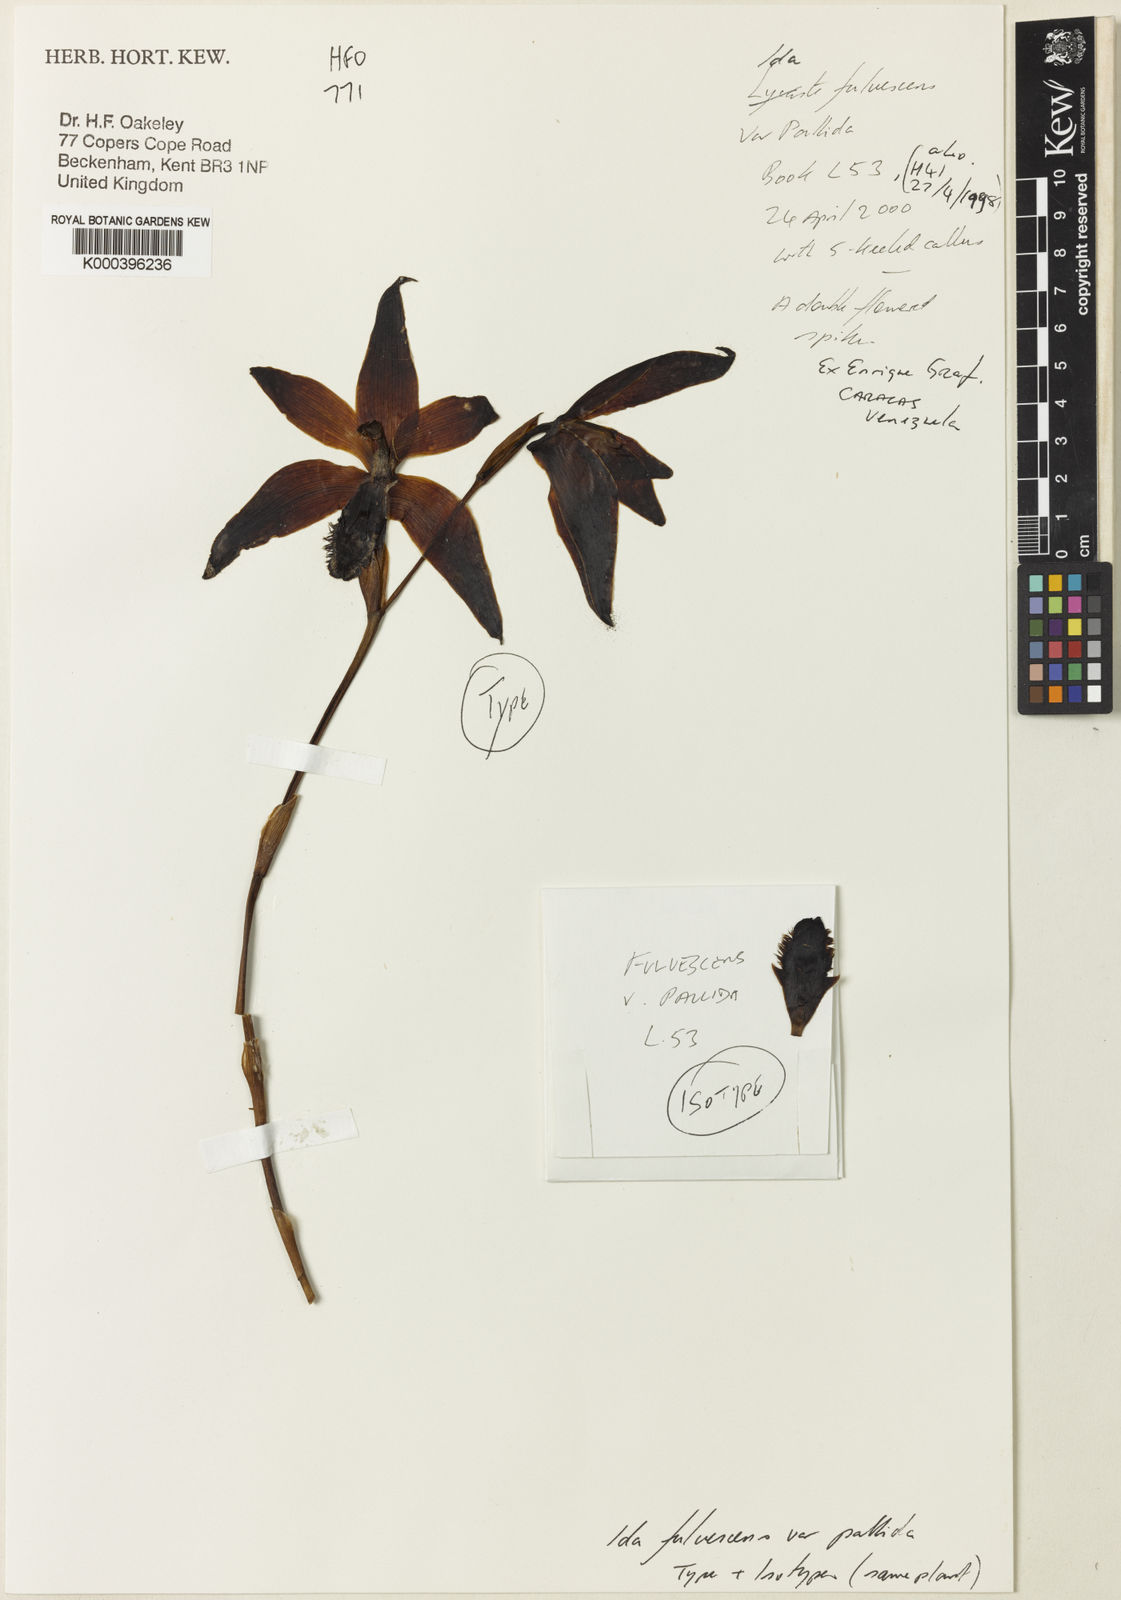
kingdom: Plantae
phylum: Tracheophyta
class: Liliopsida
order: Asparagales
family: Orchidaceae
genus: Ida
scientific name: Ida fulvescens
